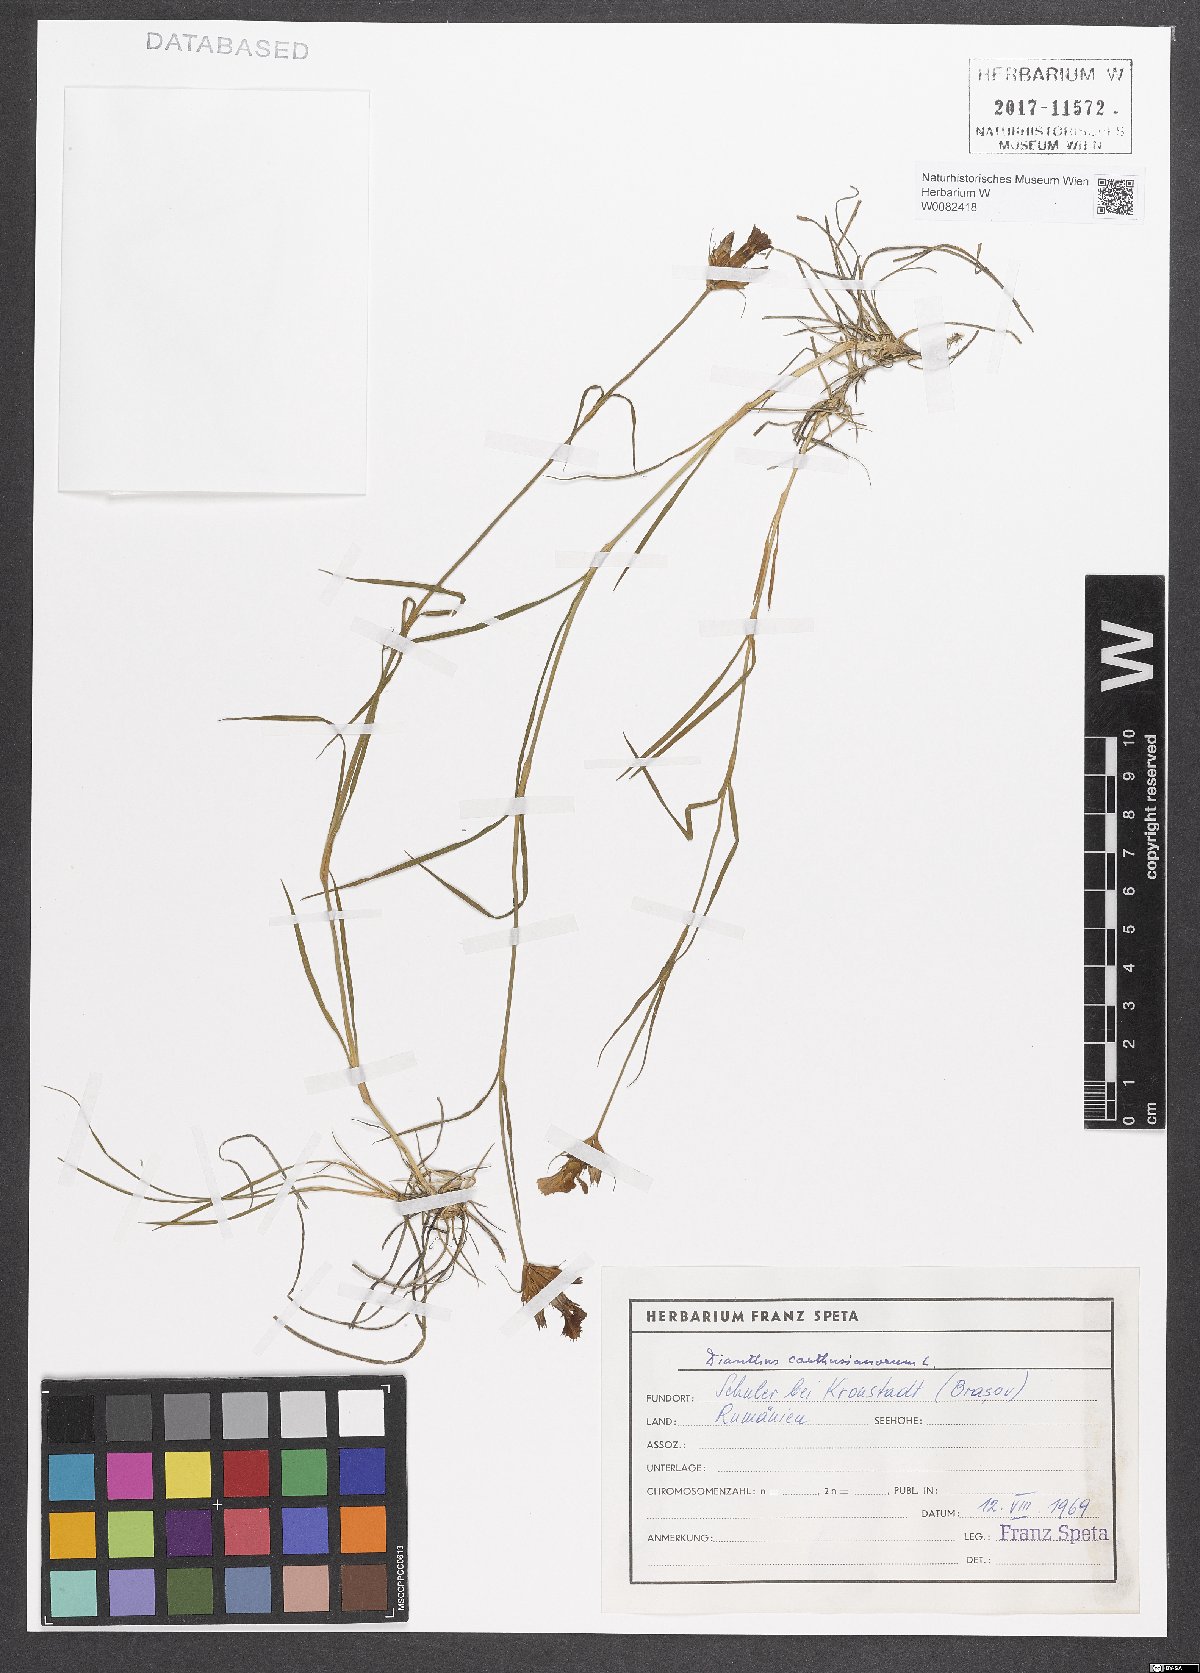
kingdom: Plantae
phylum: Tracheophyta
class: Magnoliopsida
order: Caryophyllales
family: Caryophyllaceae
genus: Dianthus
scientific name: Dianthus carthusianorum
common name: Carthusian pink
